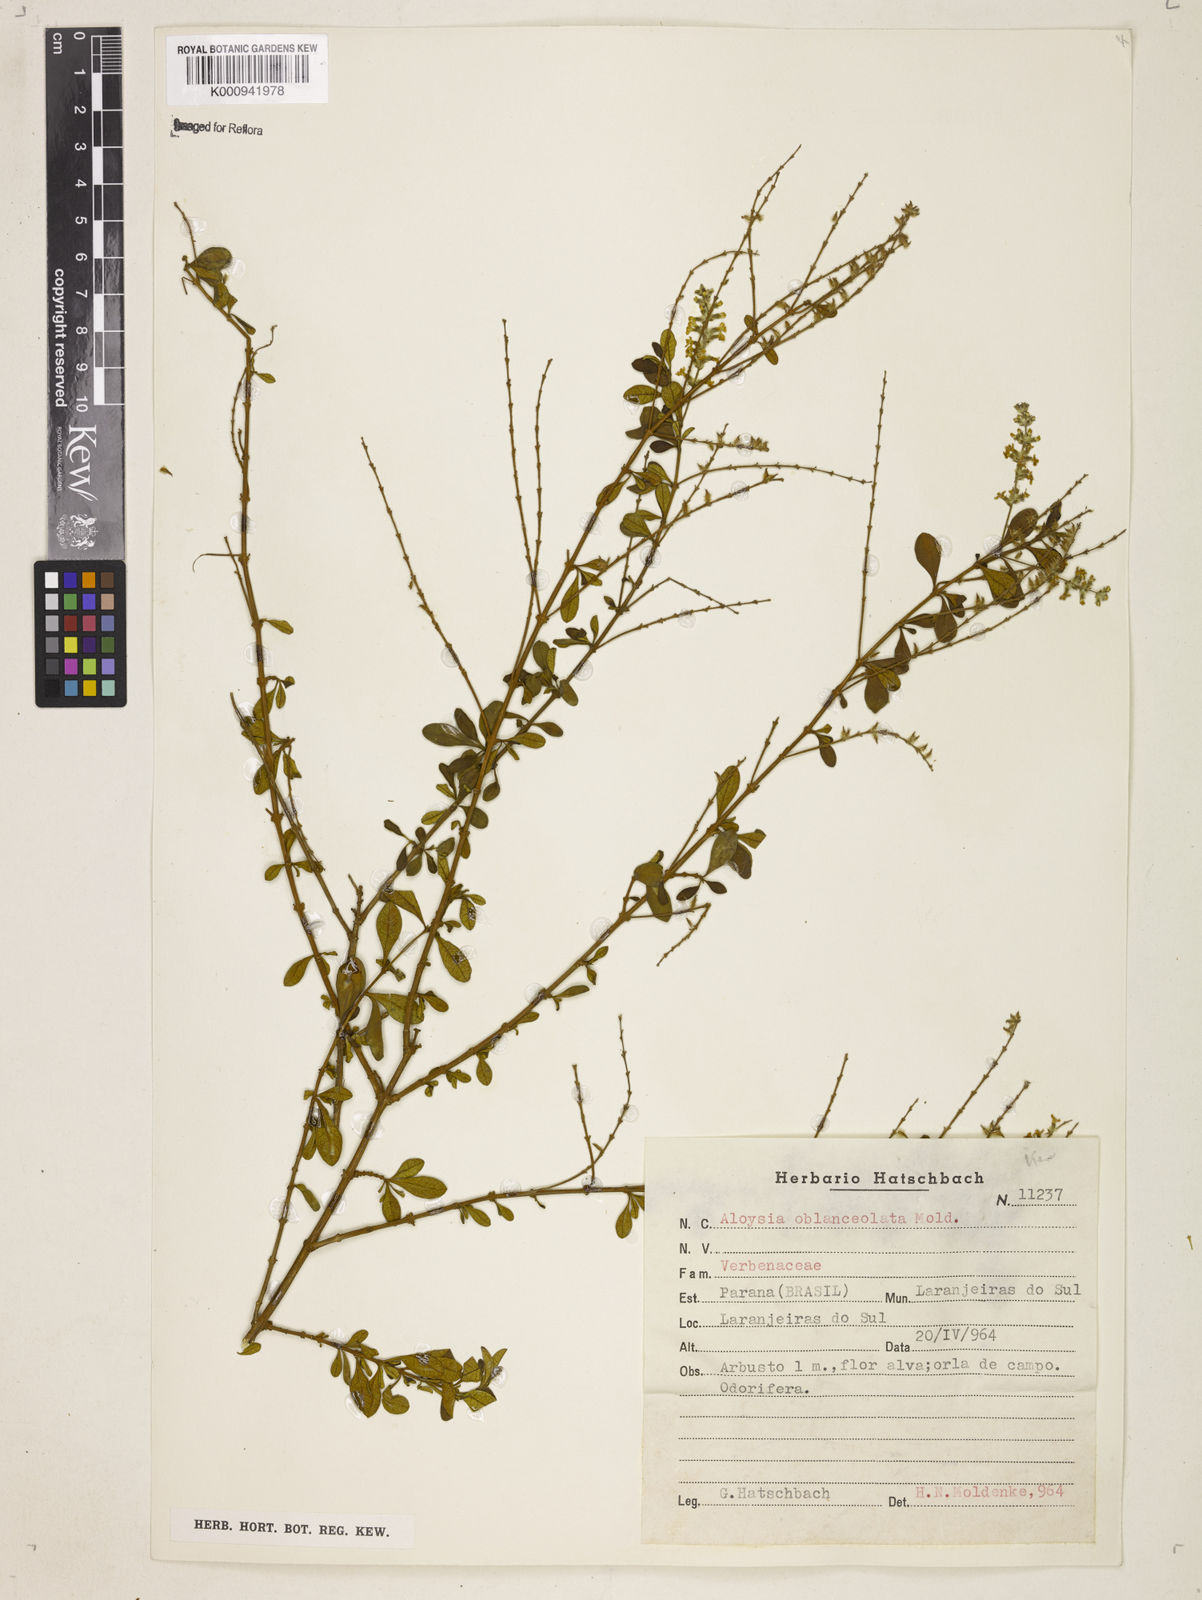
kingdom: Plantae
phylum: Tracheophyta
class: Magnoliopsida
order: Lamiales
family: Verbenaceae
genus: Aloysia
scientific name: Aloysia oblanceolata
